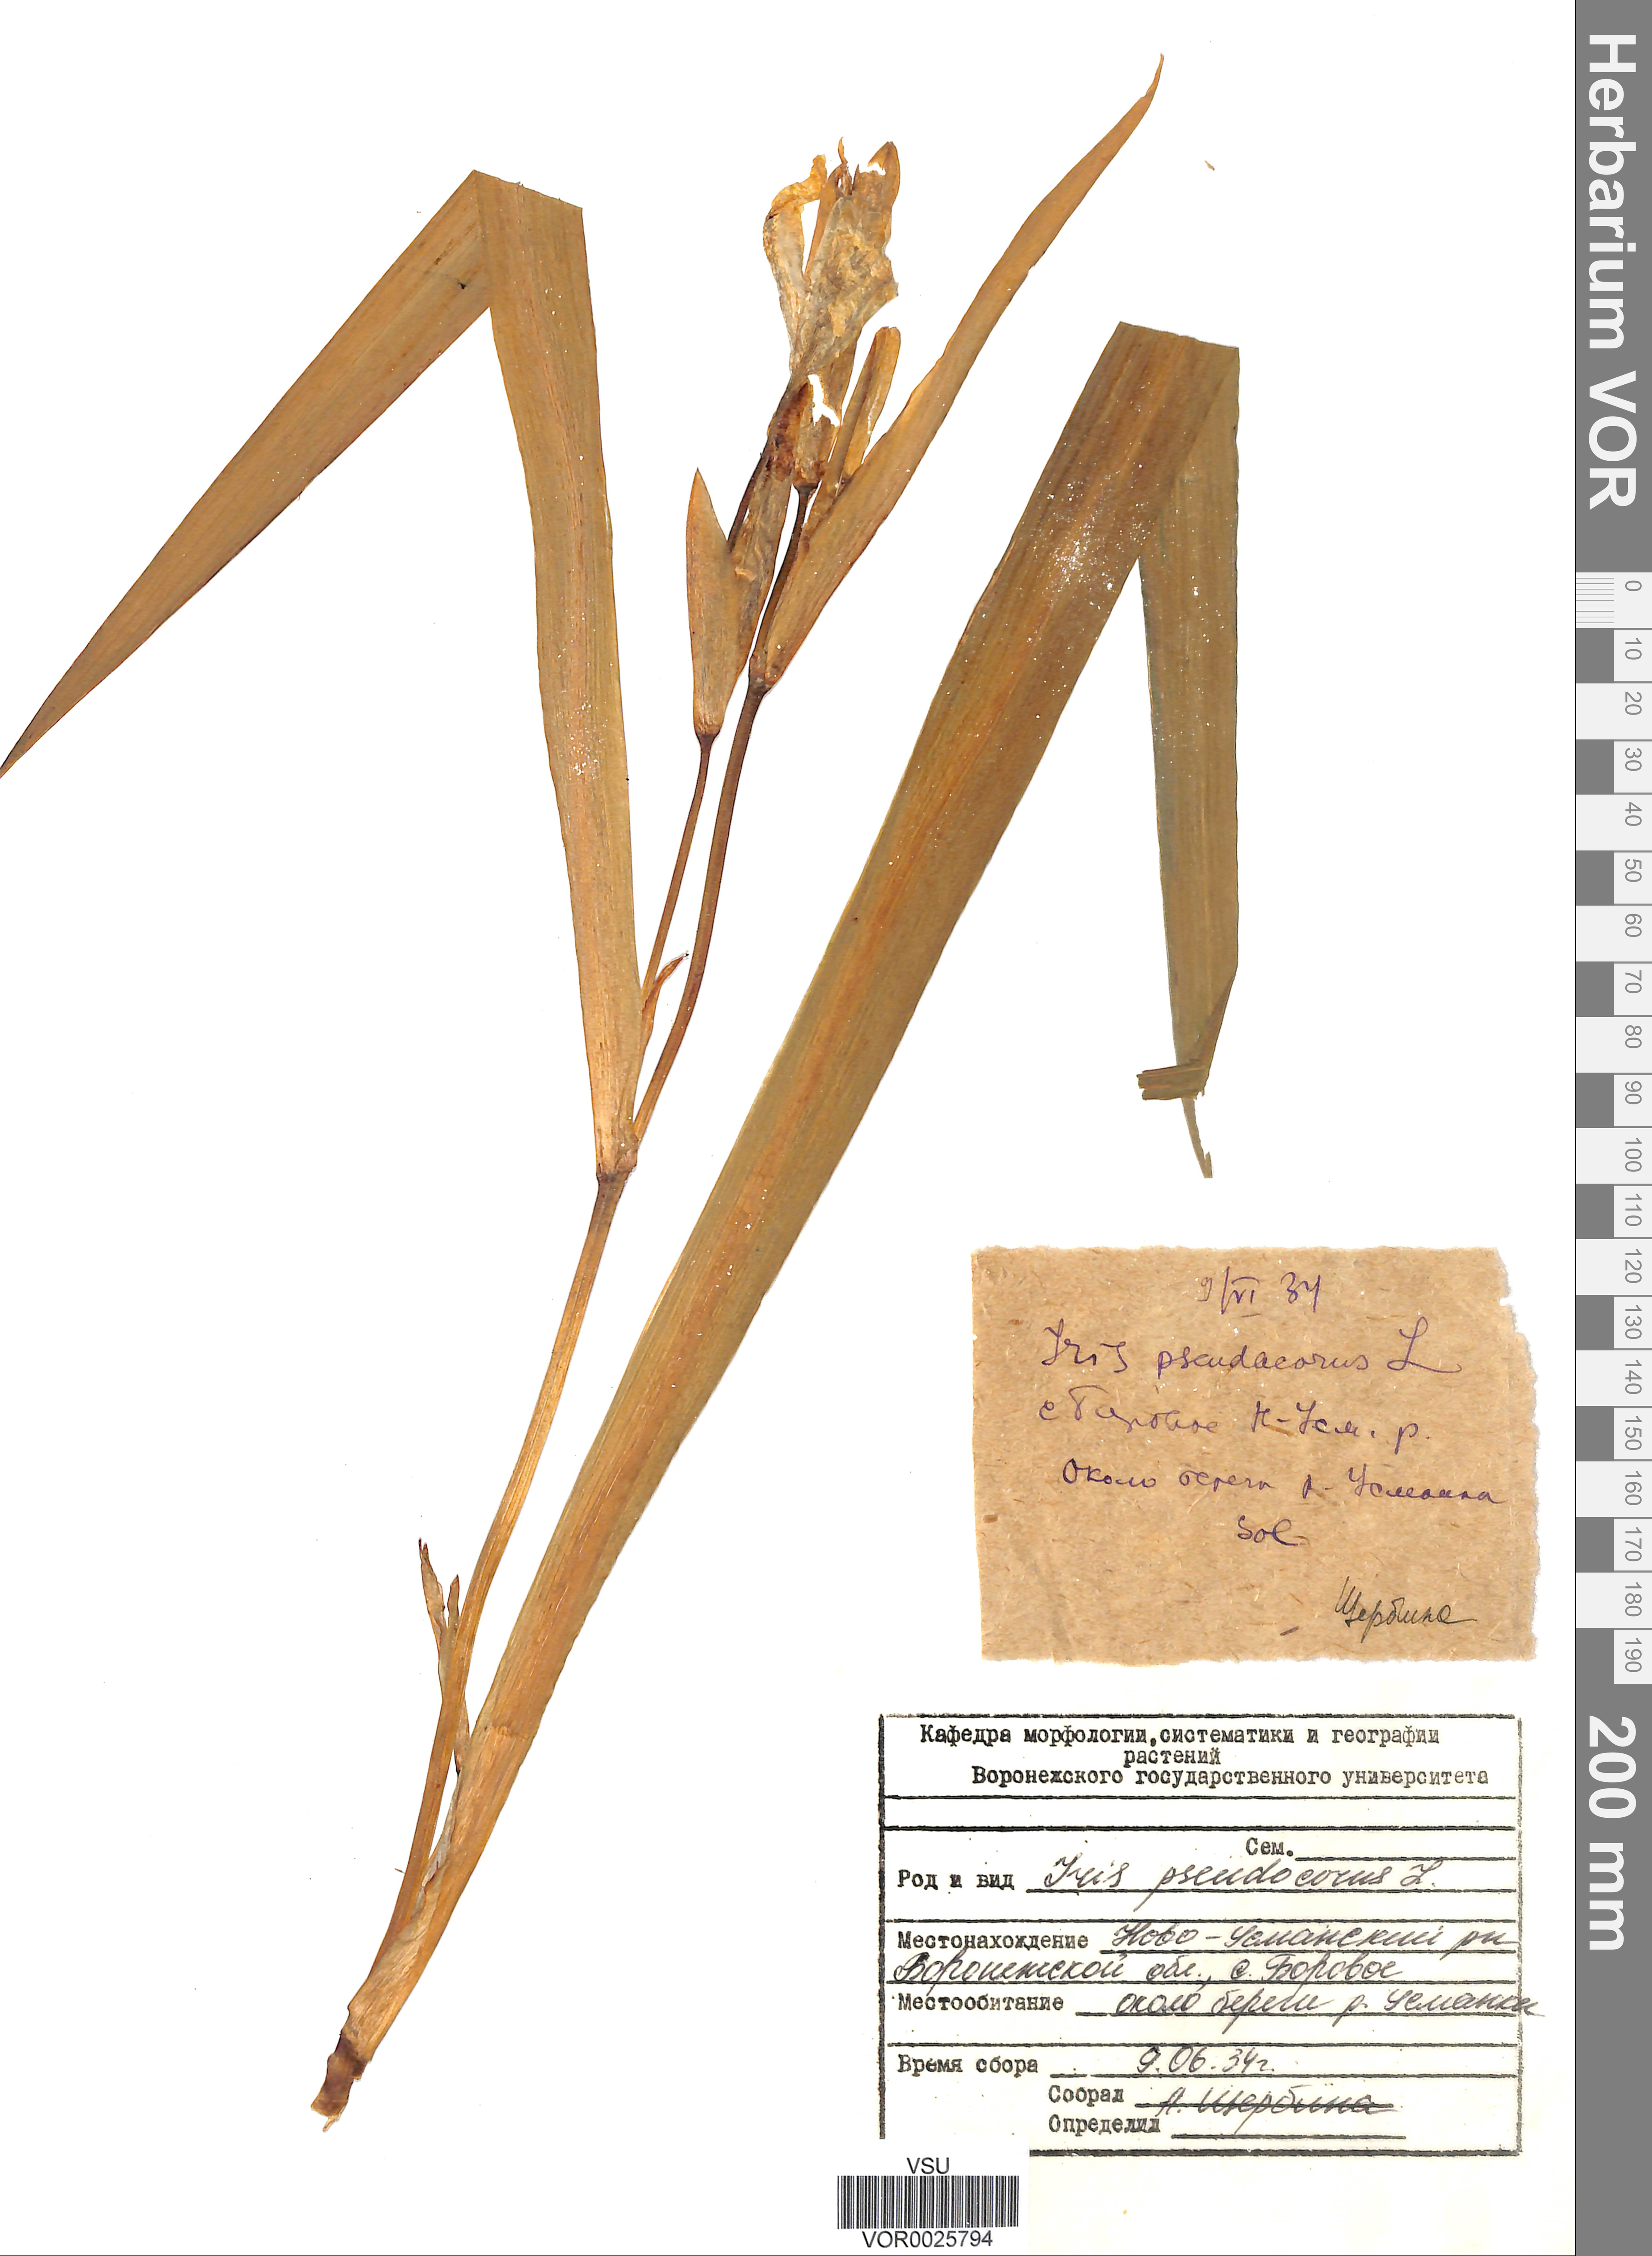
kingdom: Plantae
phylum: Tracheophyta
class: Liliopsida
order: Asparagales
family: Iridaceae
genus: Iris
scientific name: Iris pseudacorus
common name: Yellow flag
